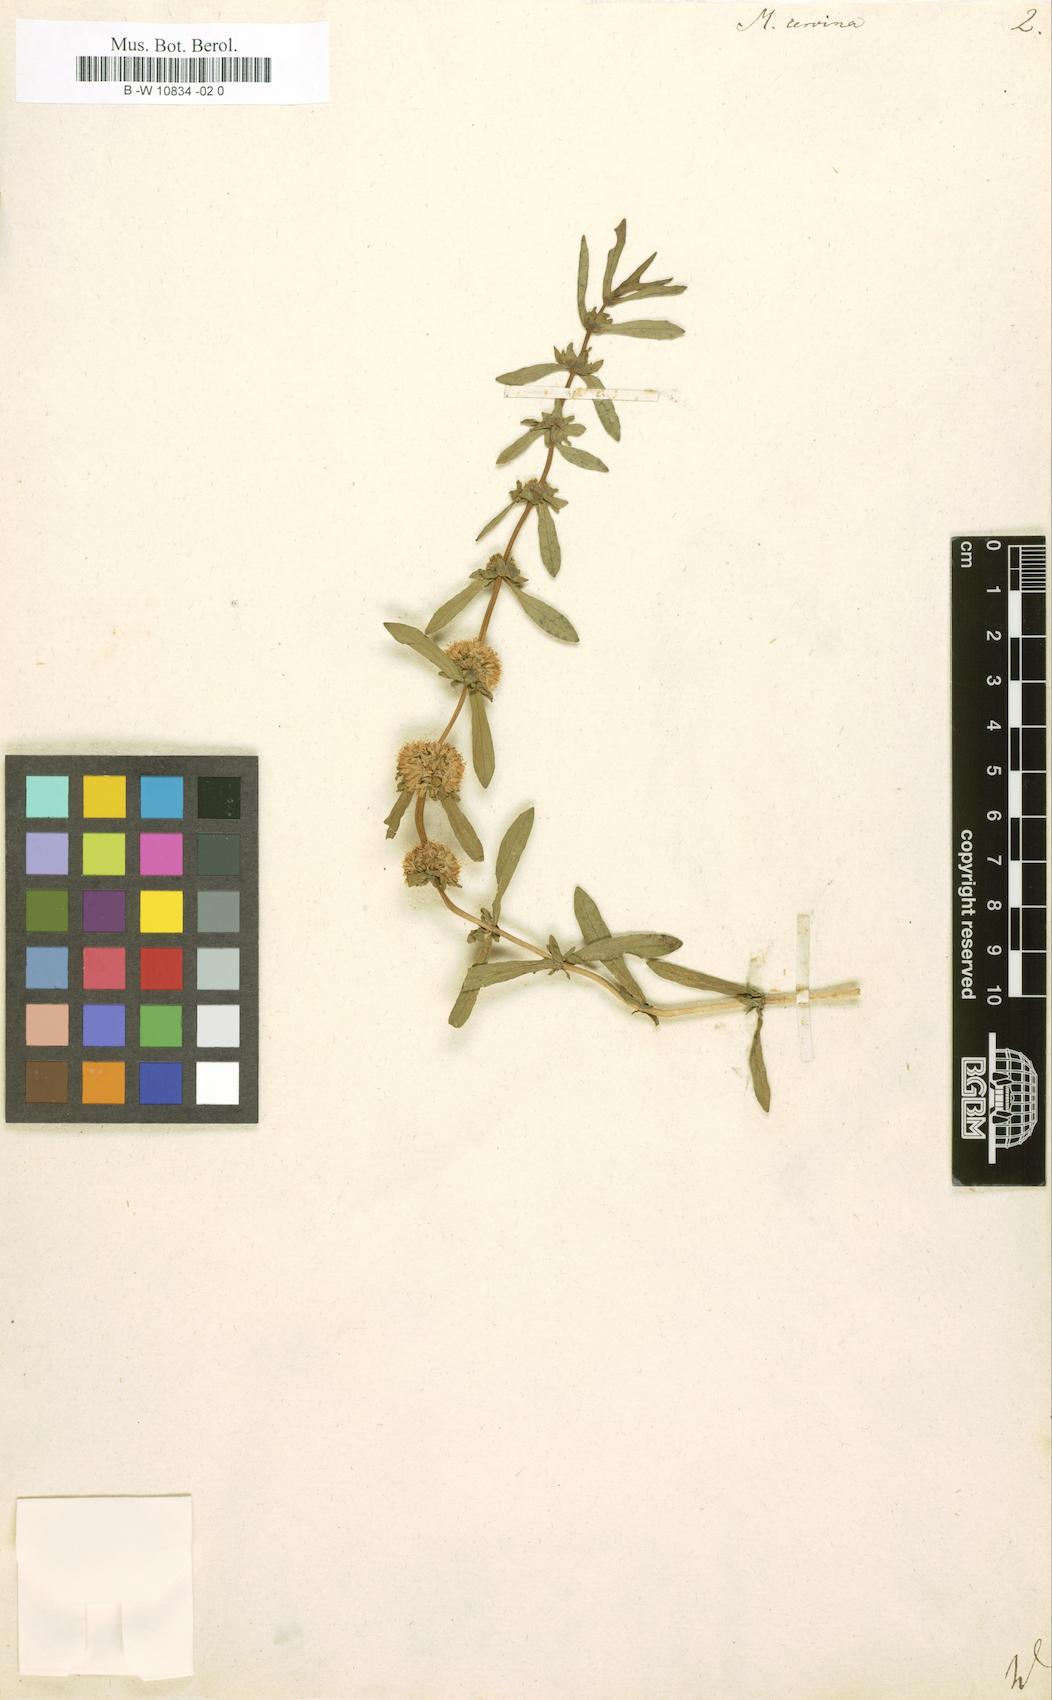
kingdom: Plantae
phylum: Tracheophyta
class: Magnoliopsida
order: Lamiales
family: Lamiaceae
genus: Mentha
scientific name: Mentha cervina
